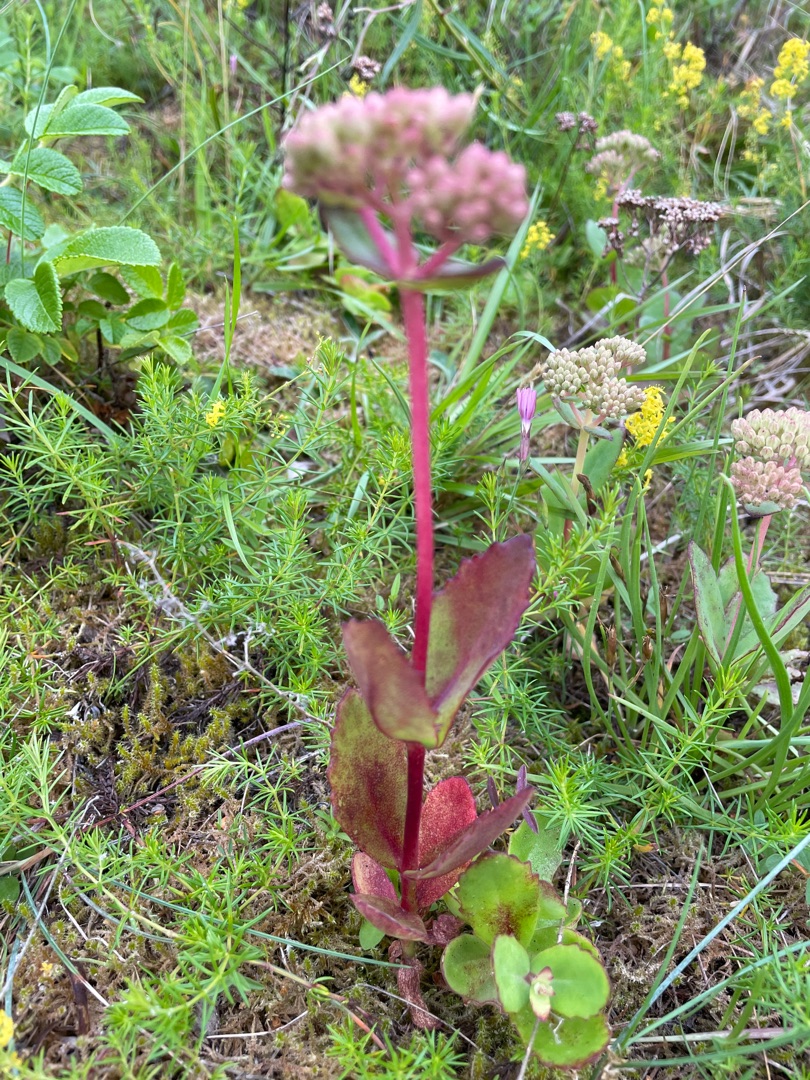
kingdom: Plantae
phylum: Tracheophyta
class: Magnoliopsida
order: Saxifragales
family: Crassulaceae
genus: Hylotelephium
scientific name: Hylotelephium telephium
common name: Sankthansurt
